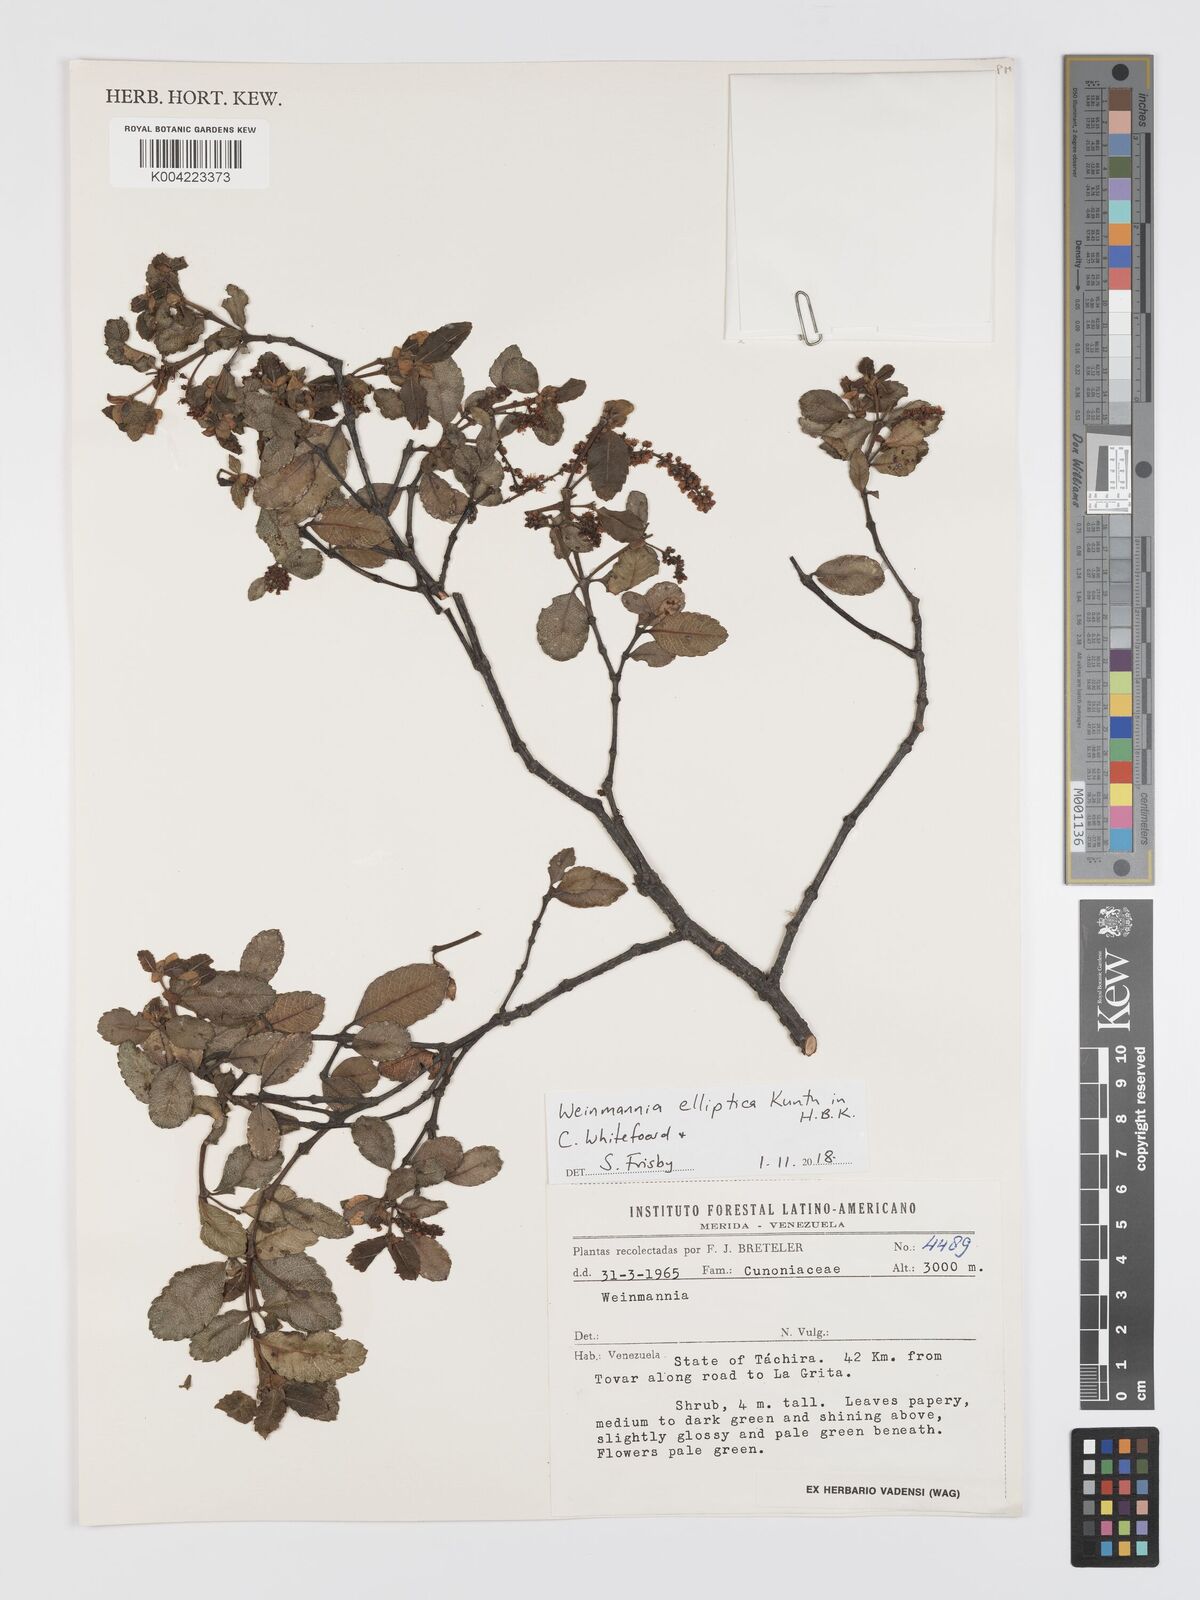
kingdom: Plantae
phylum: Tracheophyta
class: Magnoliopsida
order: Oxalidales
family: Cunoniaceae
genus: Weinmannia
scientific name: Weinmannia elliptica
